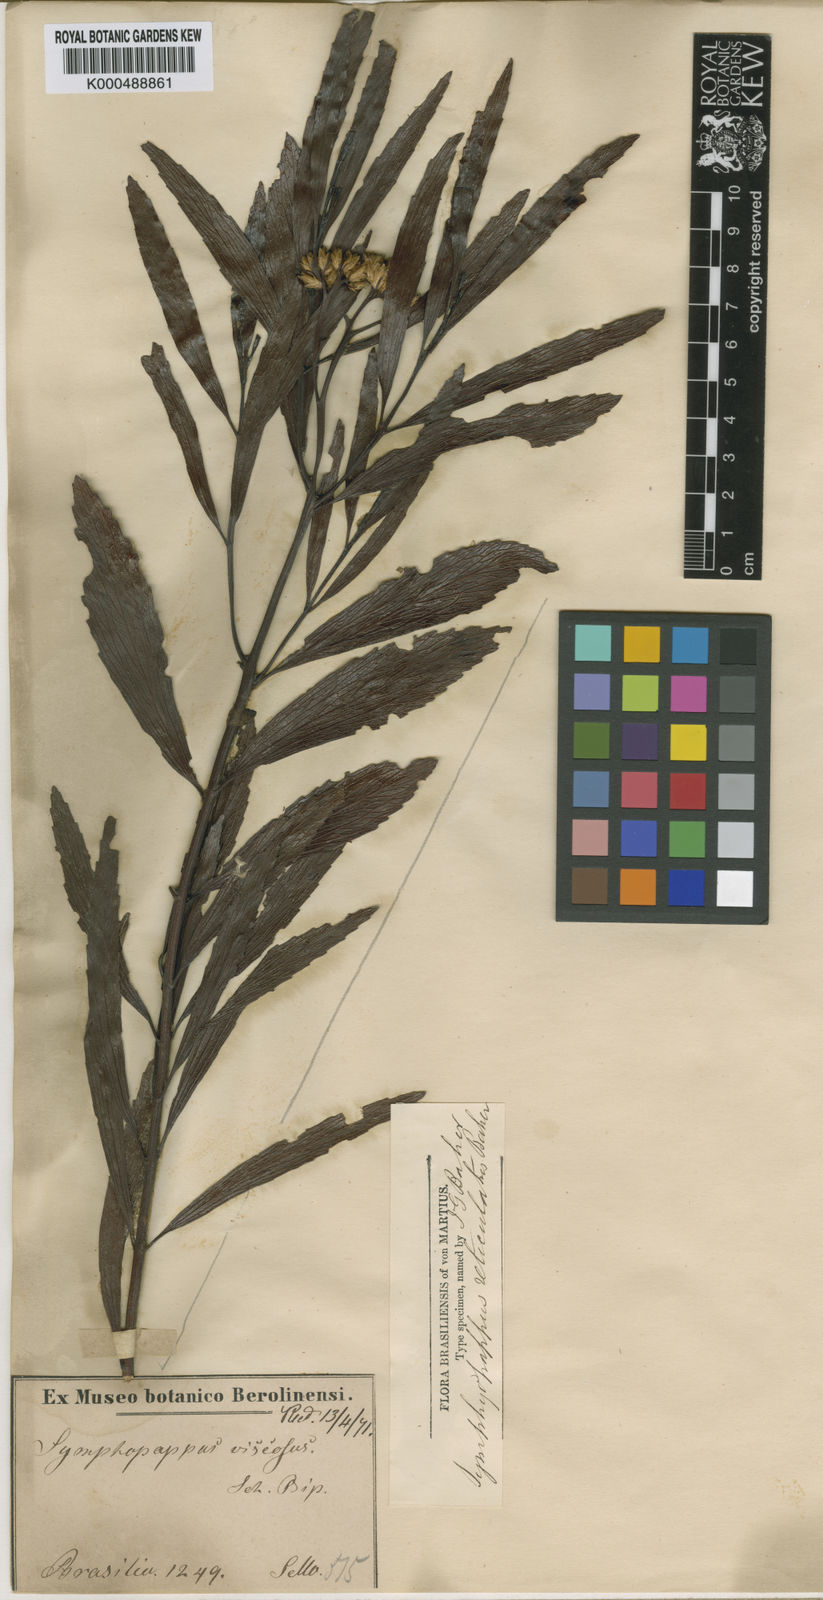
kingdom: Plantae
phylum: Tracheophyta
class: Magnoliopsida
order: Asterales
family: Asteraceae
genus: Symphyopappus
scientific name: Symphyopappus reticulatus
